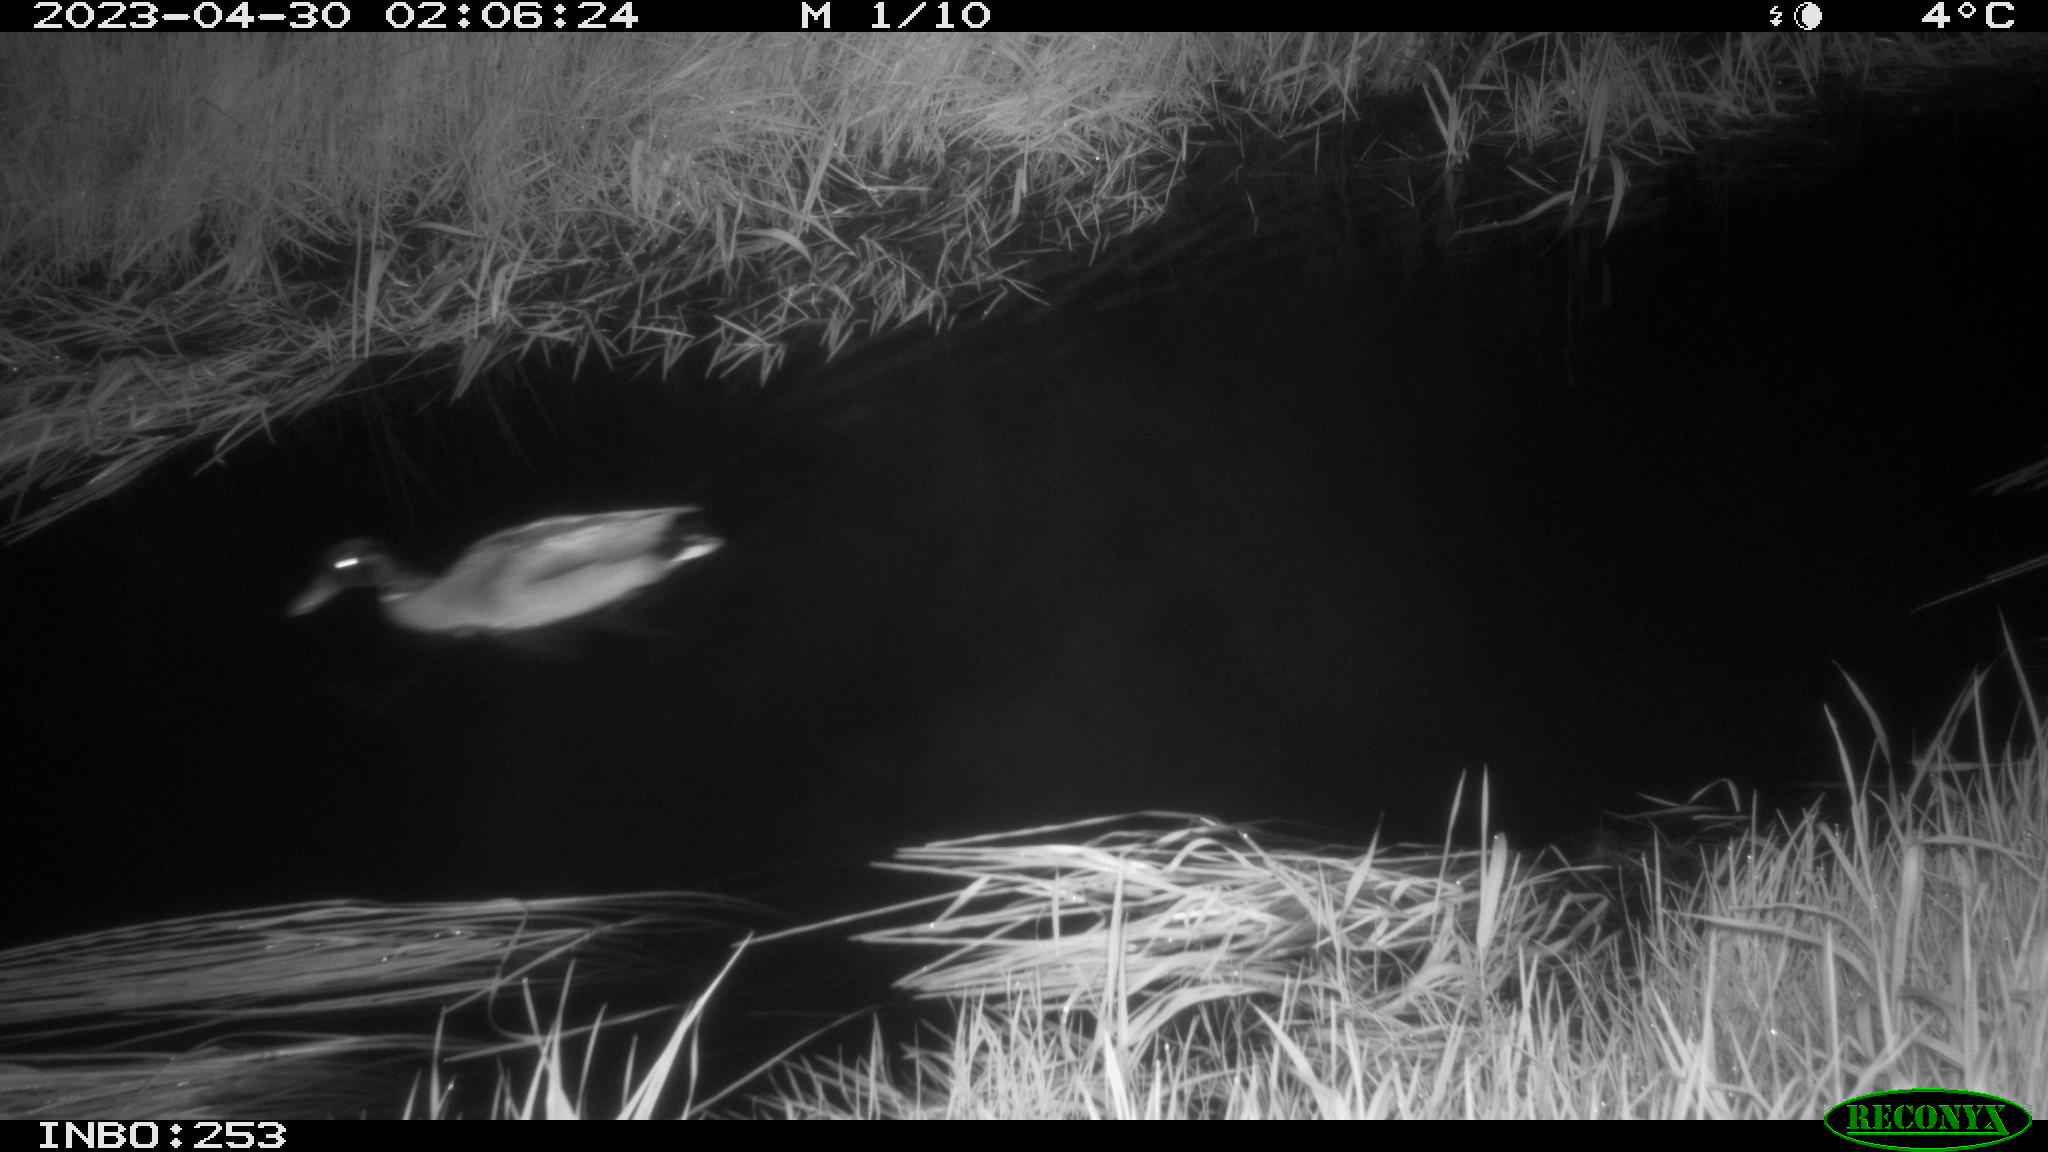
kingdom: Animalia
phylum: Chordata
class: Aves
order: Anseriformes
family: Anatidae
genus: Anas
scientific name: Anas
